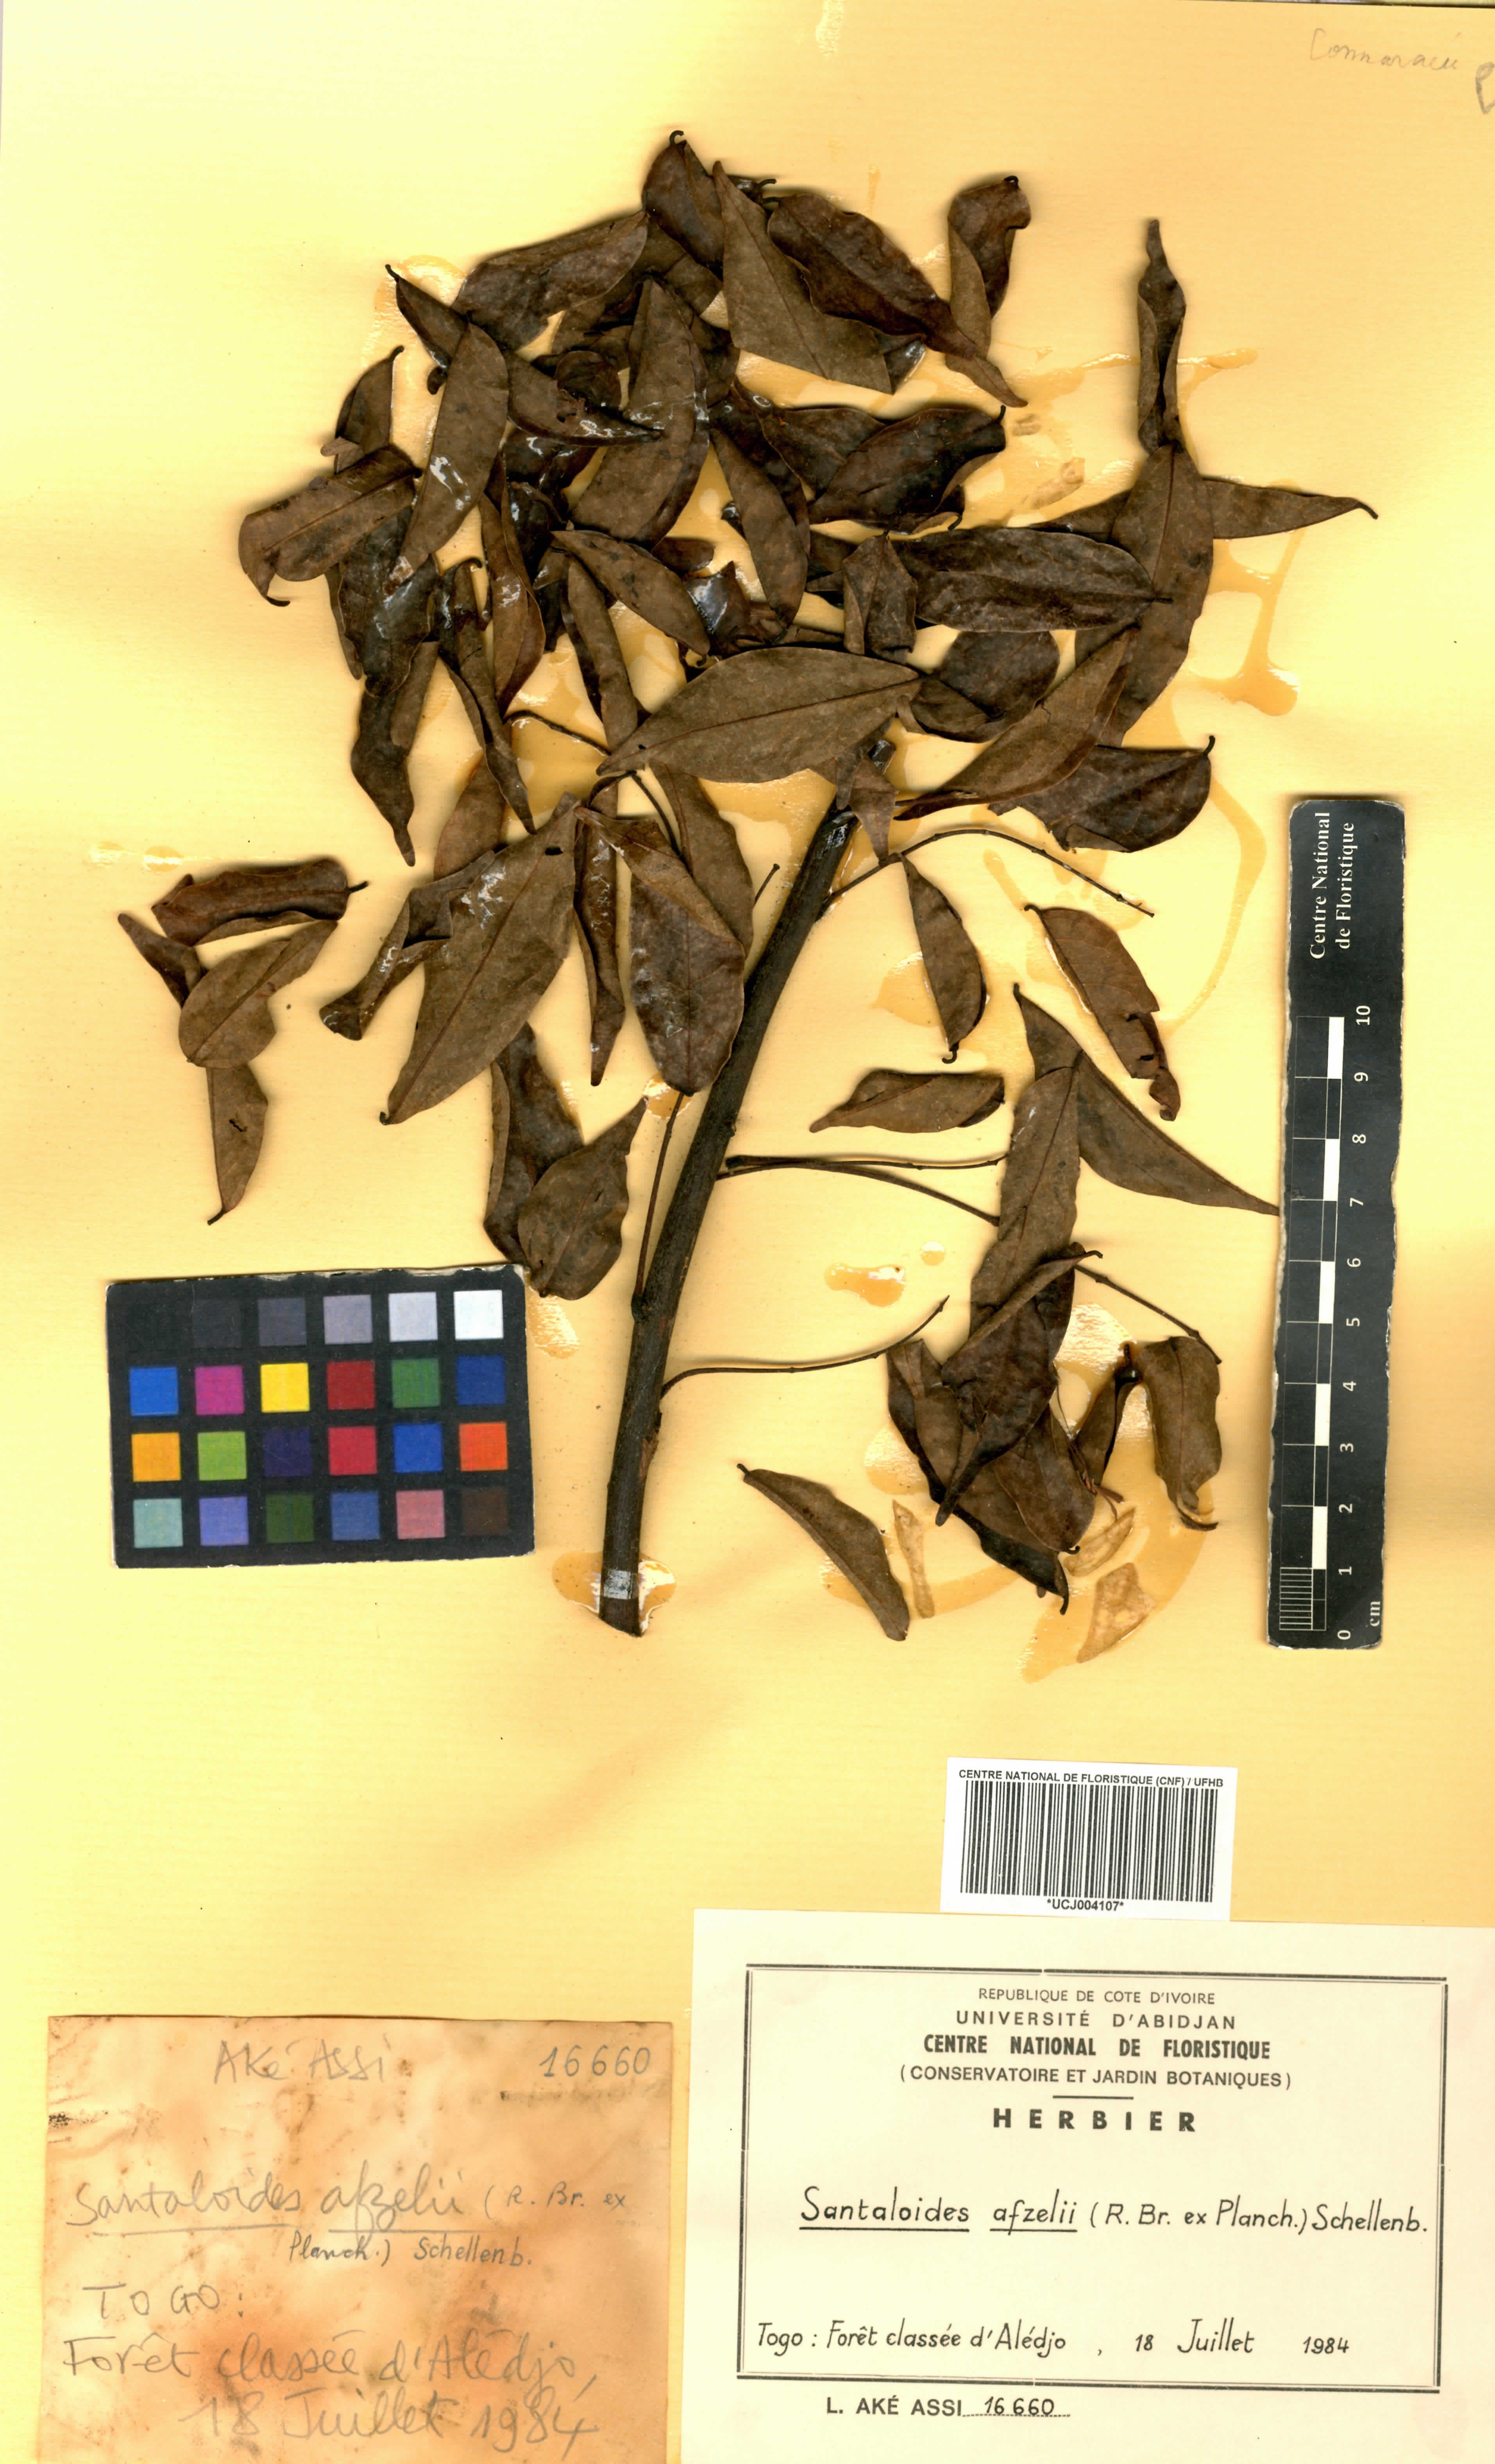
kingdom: Plantae
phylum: Tracheophyta
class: Magnoliopsida
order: Oxalidales
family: Connaraceae
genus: Rourea
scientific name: Rourea minor
